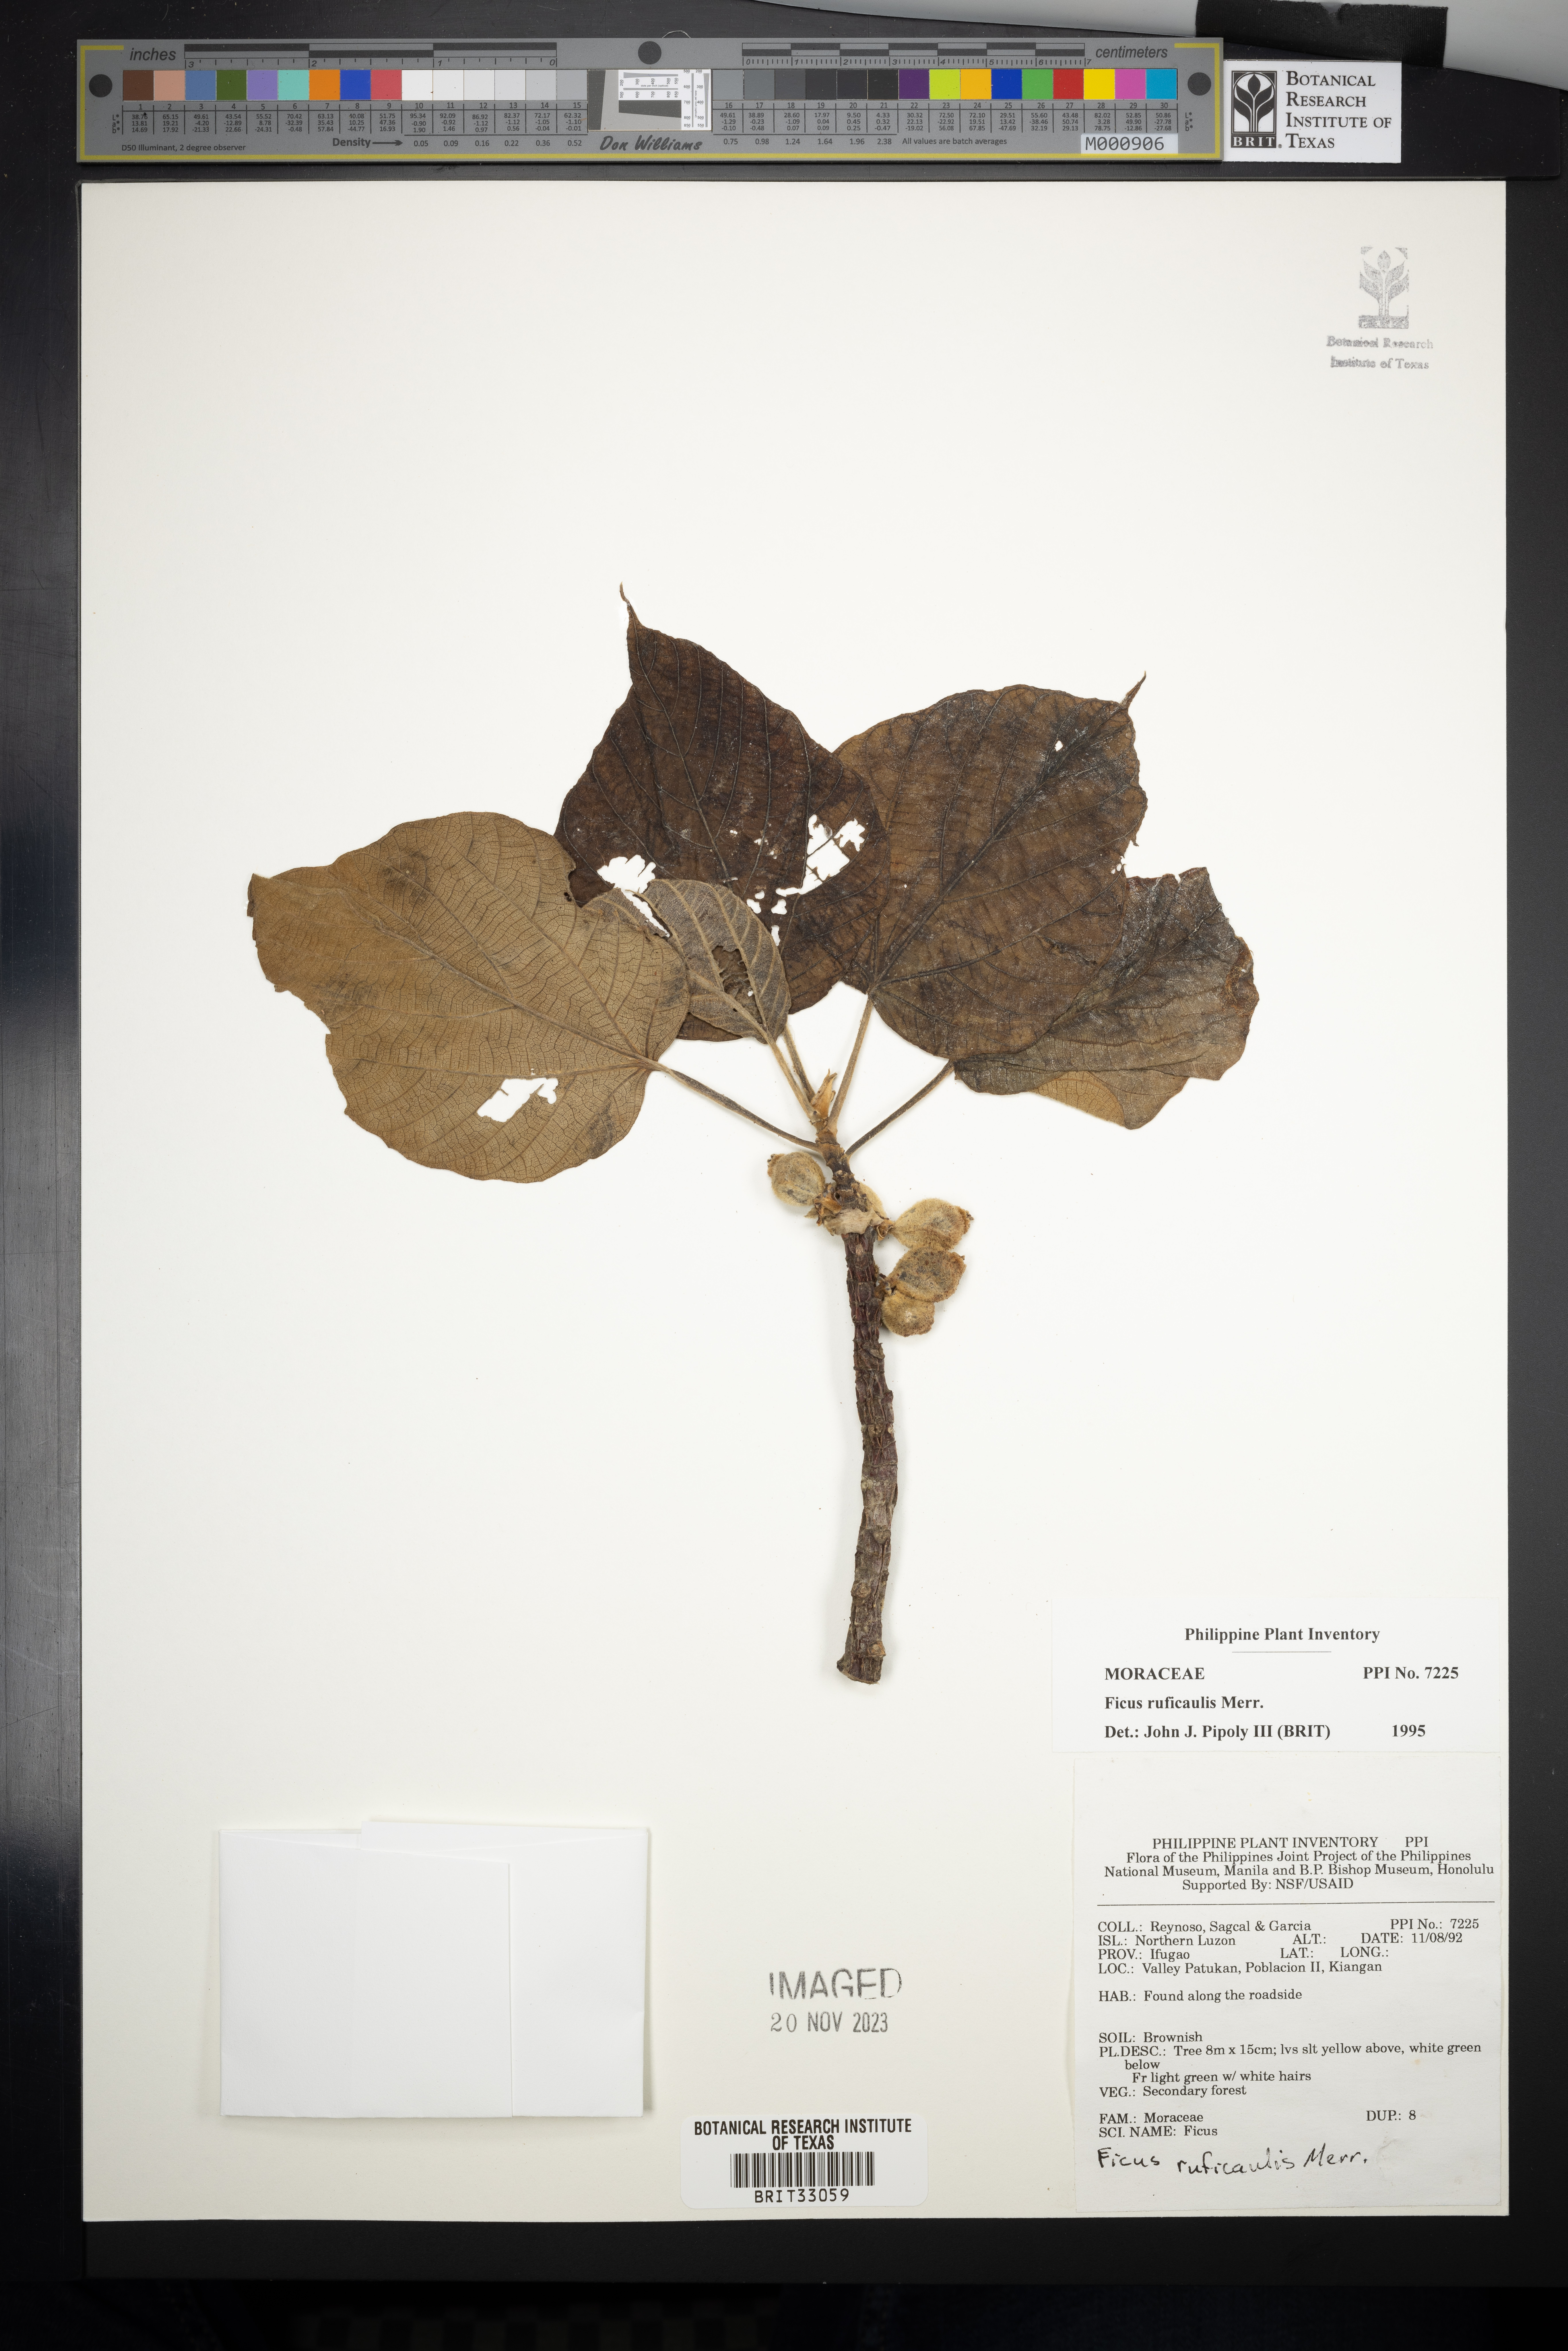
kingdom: Plantae
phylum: Tracheophyta
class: Magnoliopsida
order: Rosales
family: Moraceae
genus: Ficus
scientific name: Ficus ruficaulis
